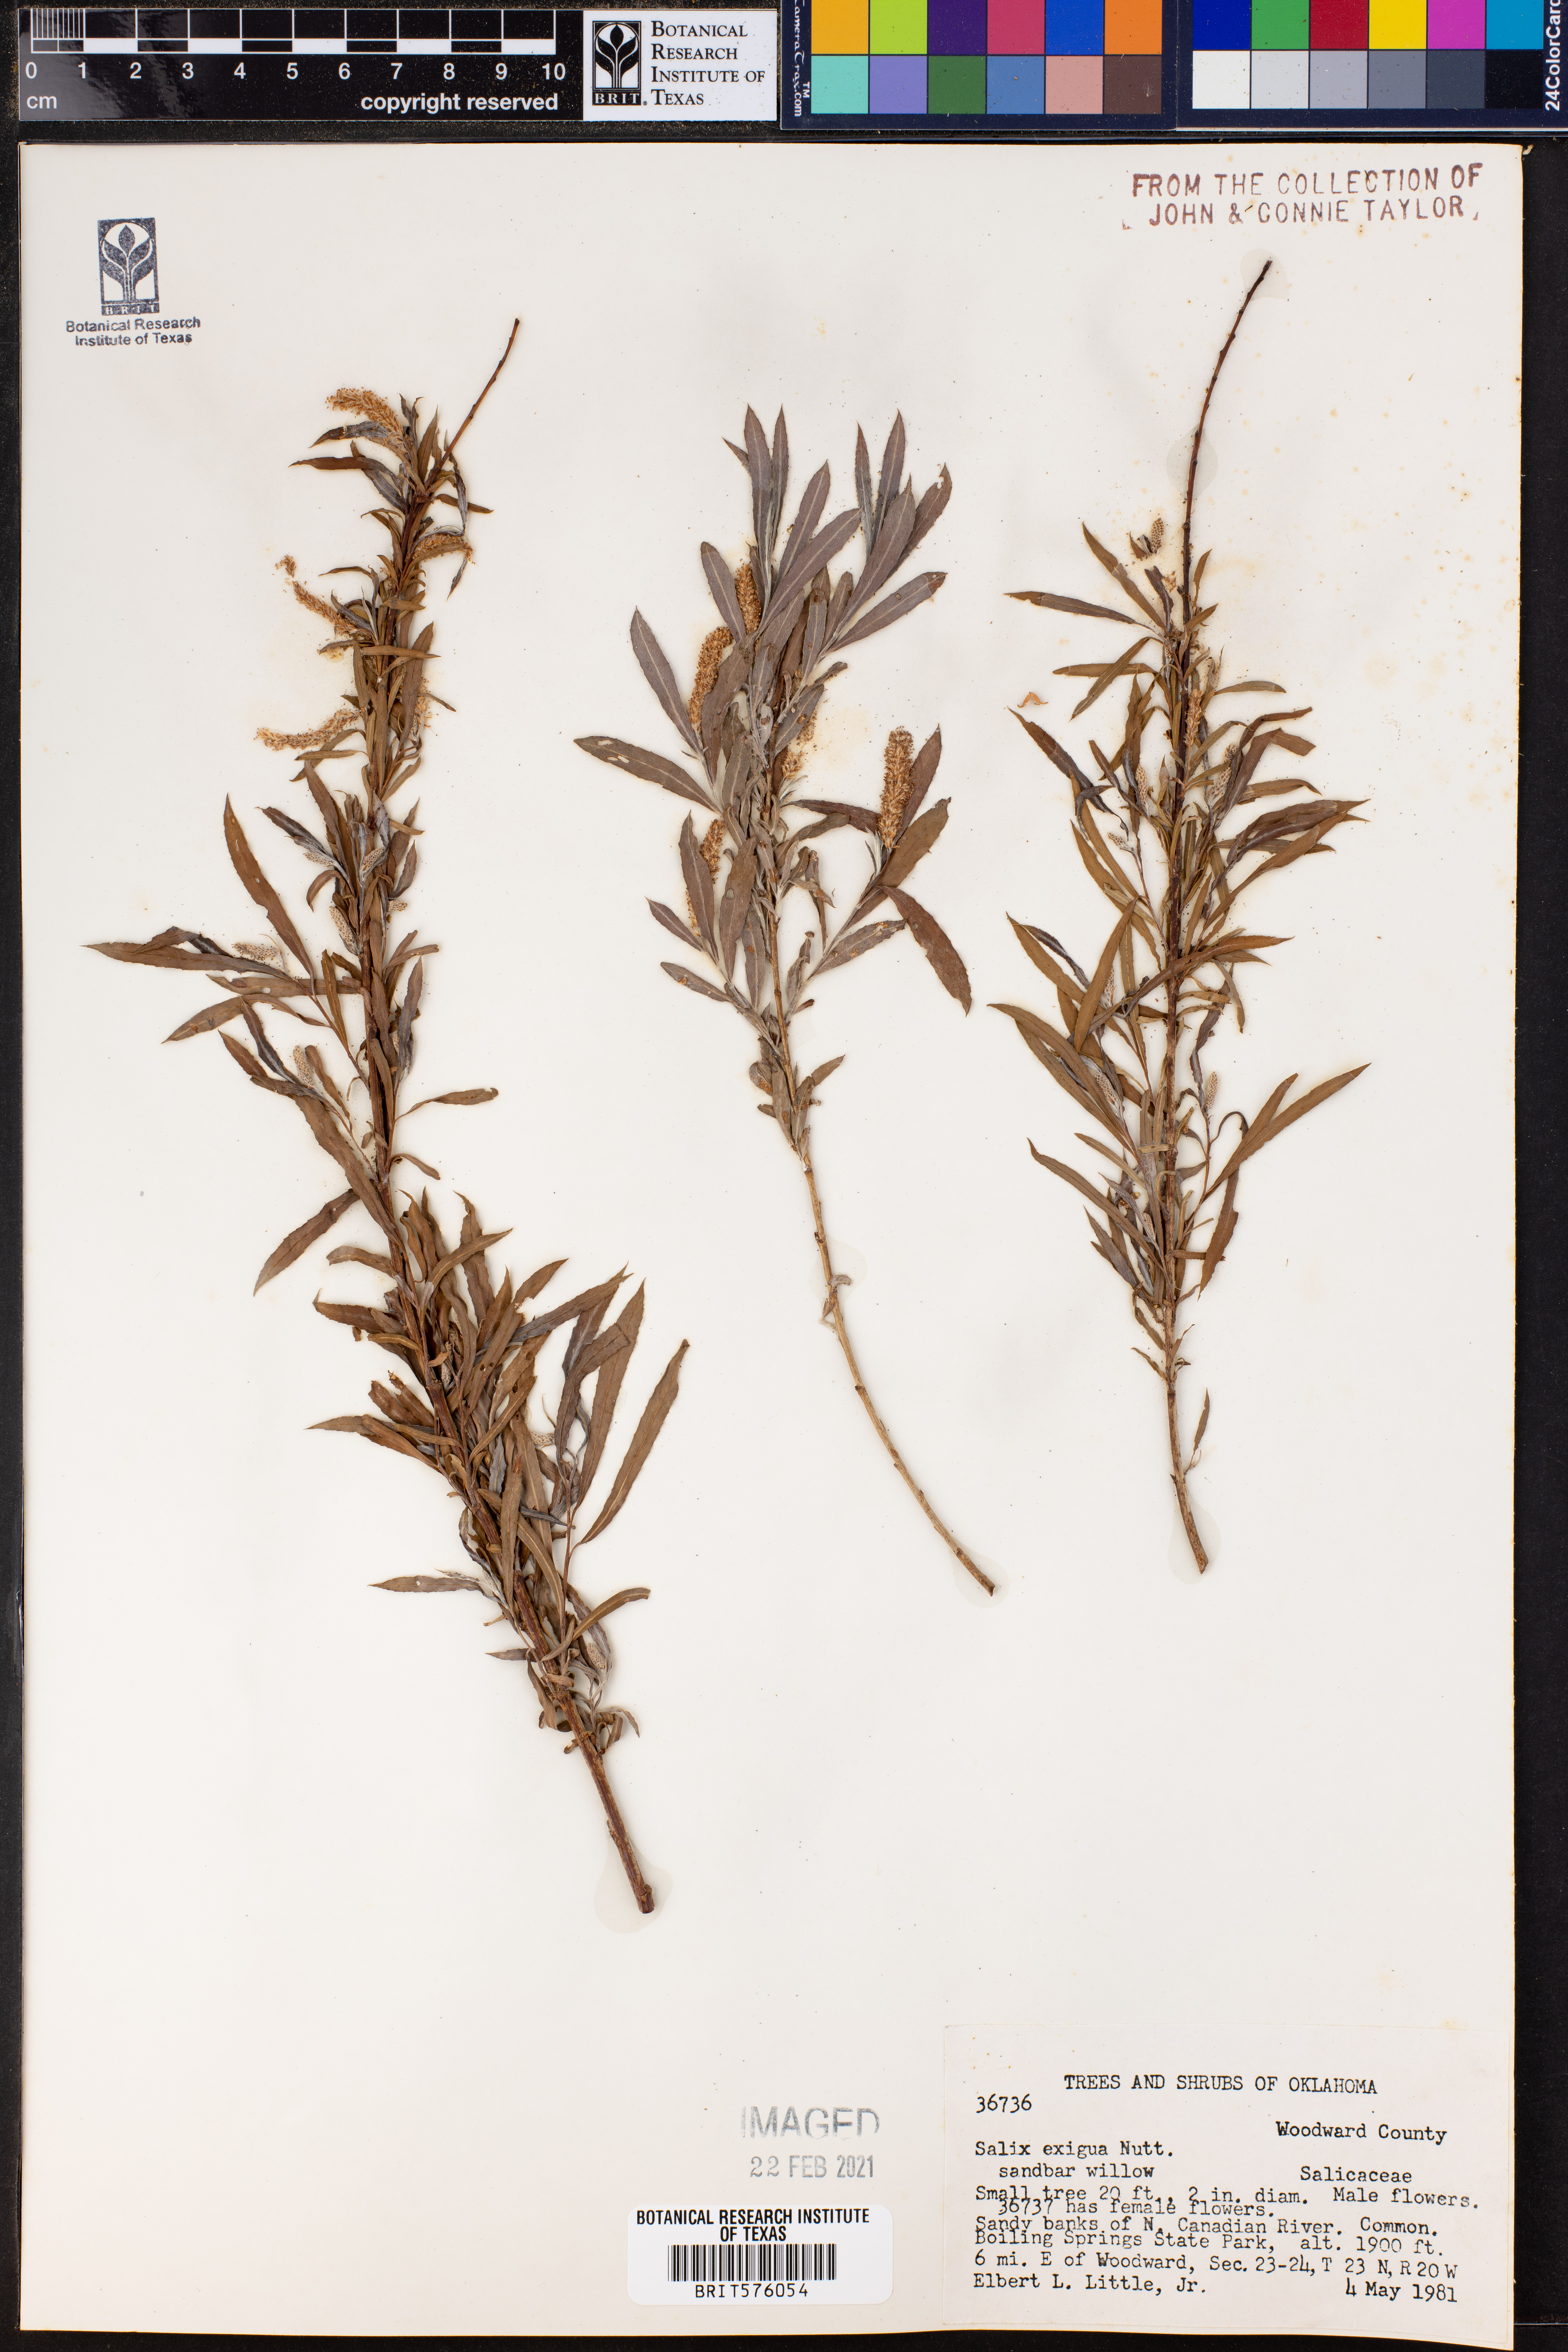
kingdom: Plantae
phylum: Tracheophyta
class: Magnoliopsida
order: Malpighiales
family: Salicaceae
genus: Salix
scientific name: Salix exigua
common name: Coyote willow
